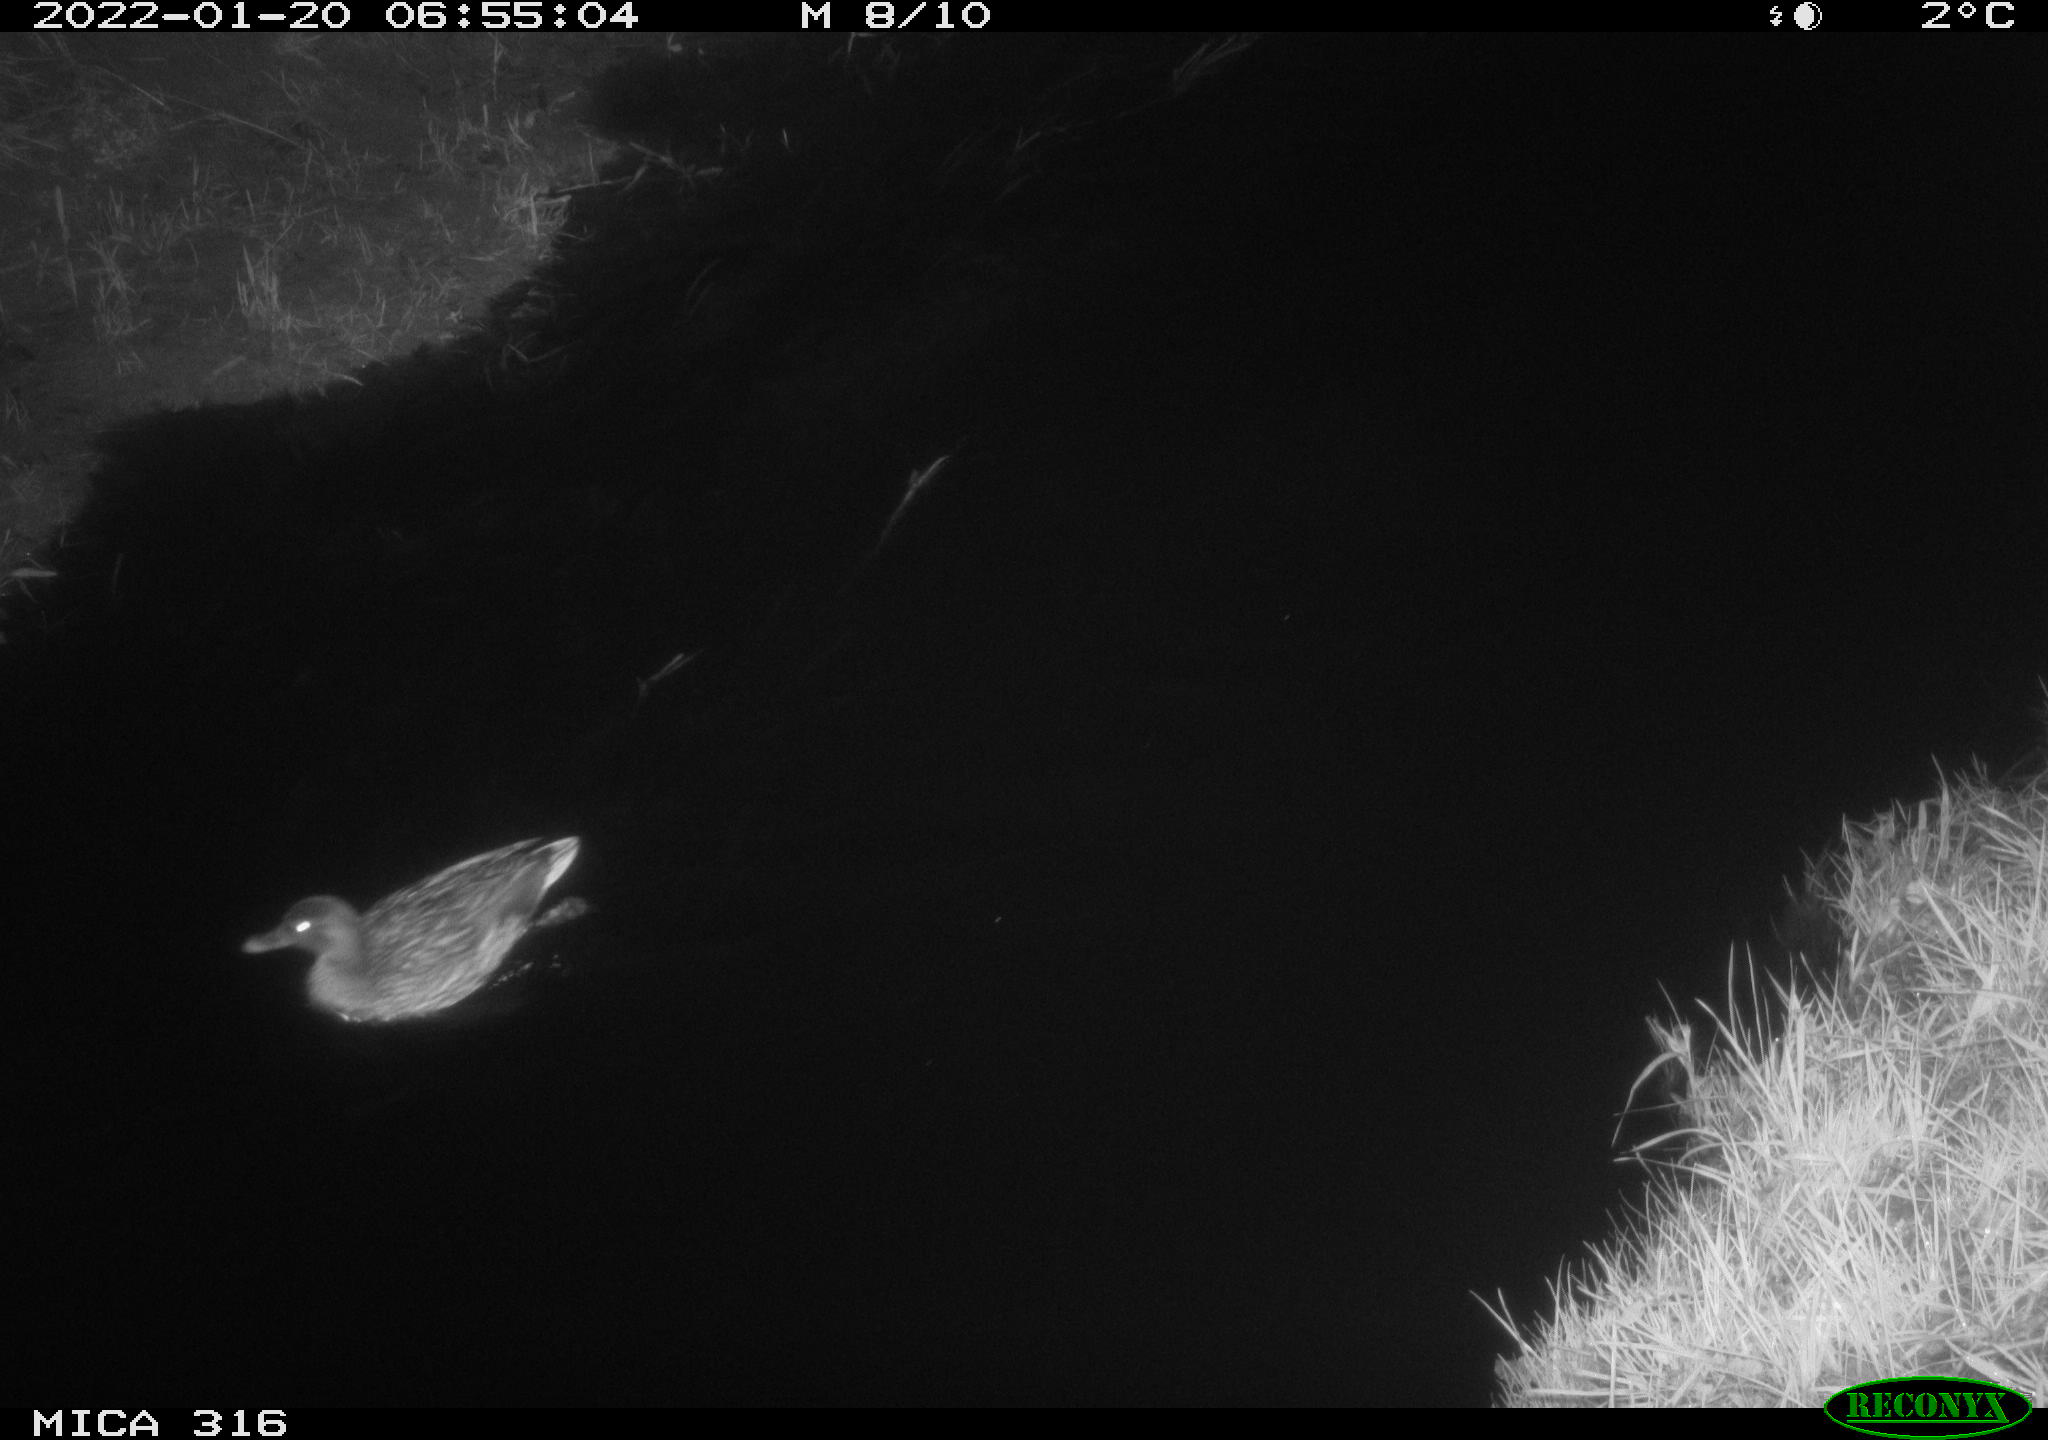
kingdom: Animalia
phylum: Chordata
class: Aves
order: Anseriformes
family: Anatidae
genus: Anas
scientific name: Anas platyrhynchos
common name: Mallard
